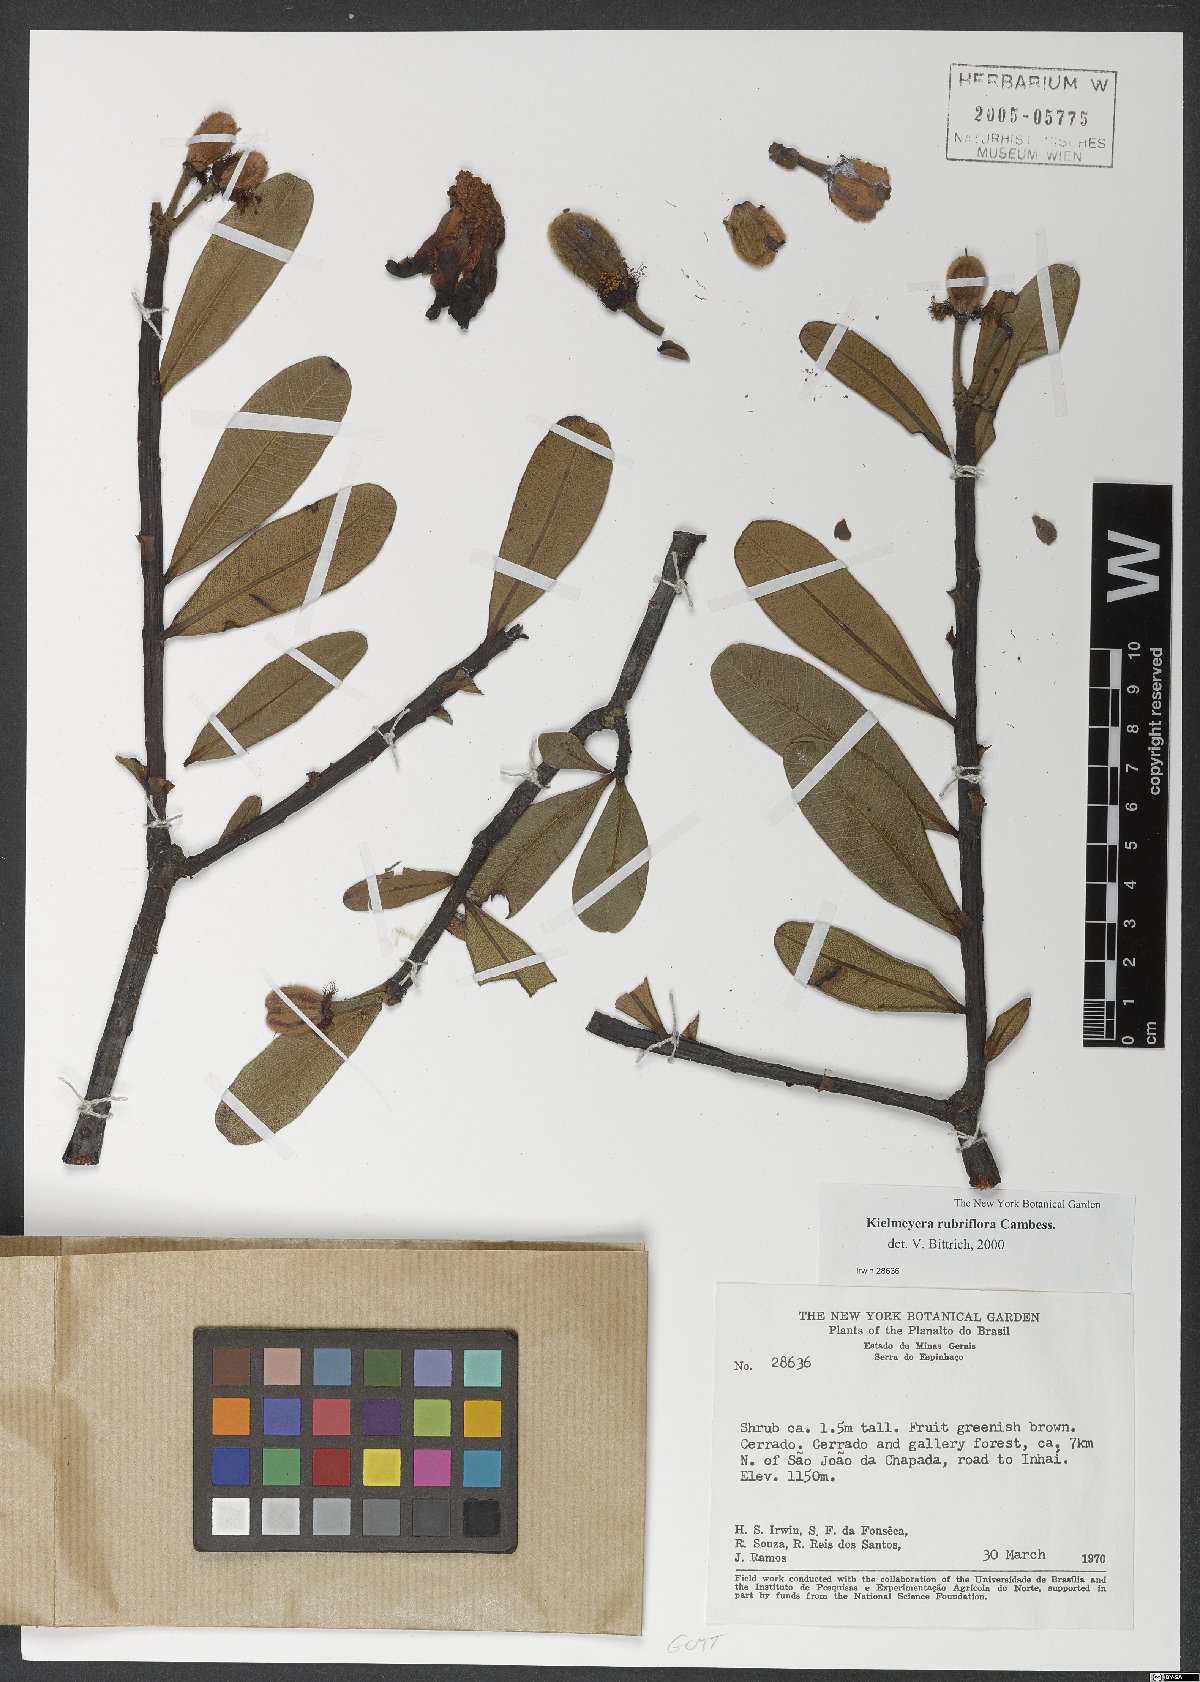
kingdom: Plantae
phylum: Tracheophyta
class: Magnoliopsida
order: Malpighiales
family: Calophyllaceae
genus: Kielmeyera
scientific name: Kielmeyera rubriflora
